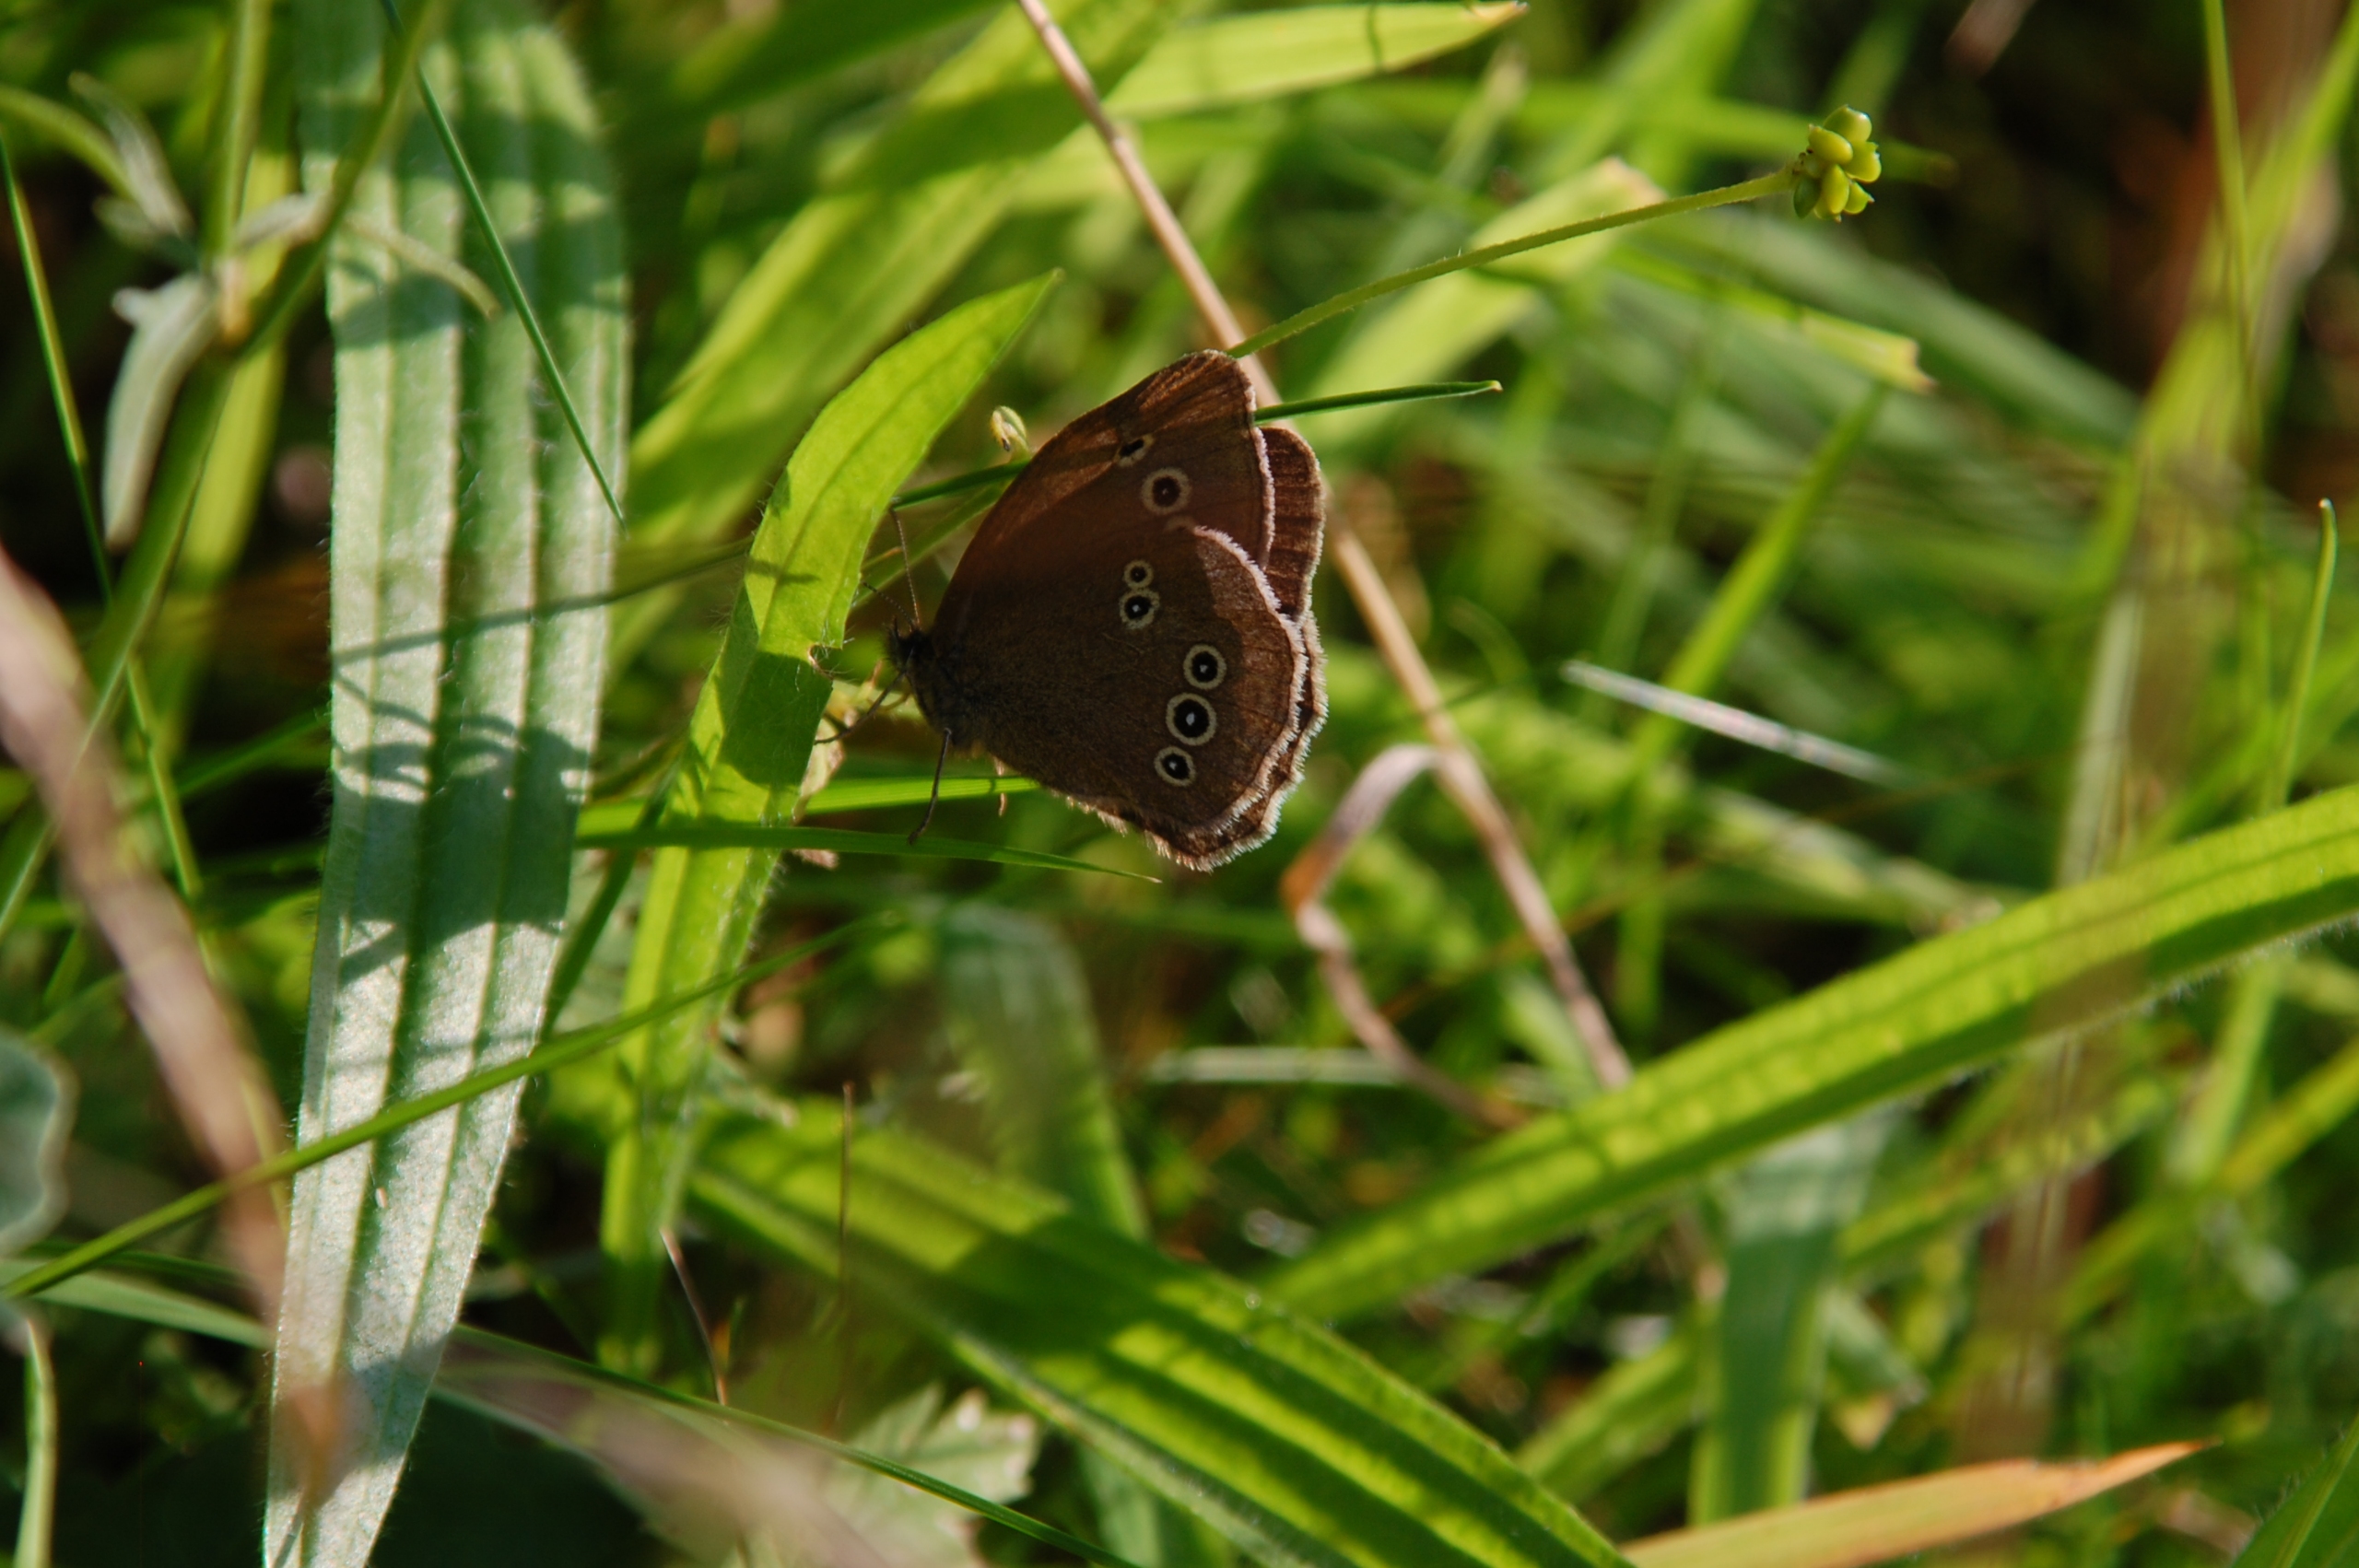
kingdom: Animalia
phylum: Arthropoda
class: Insecta
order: Lepidoptera
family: Nymphalidae
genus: Aphantopus
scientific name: Aphantopus hyperantus
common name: Engrandøje
